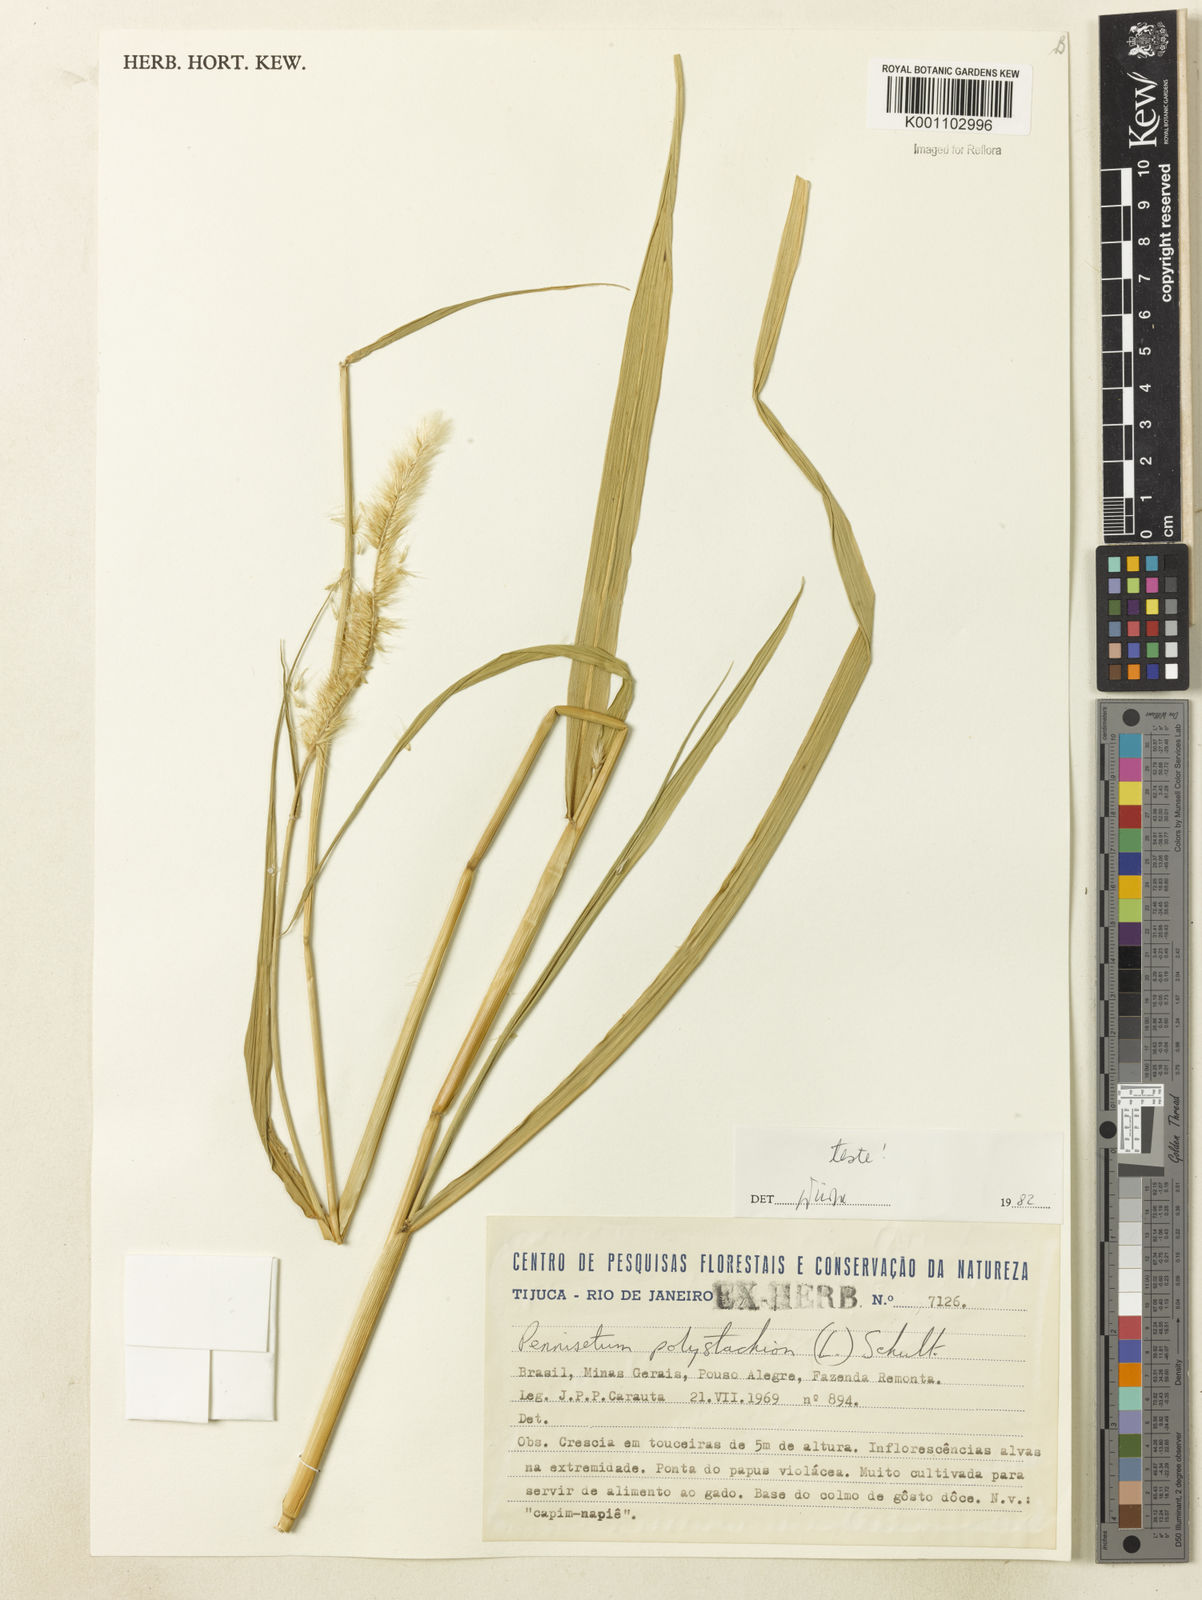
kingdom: Plantae
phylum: Tracheophyta
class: Liliopsida
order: Poales
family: Poaceae
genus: Setaria
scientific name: Setaria parviflora
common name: Knotroot bristle-grass
